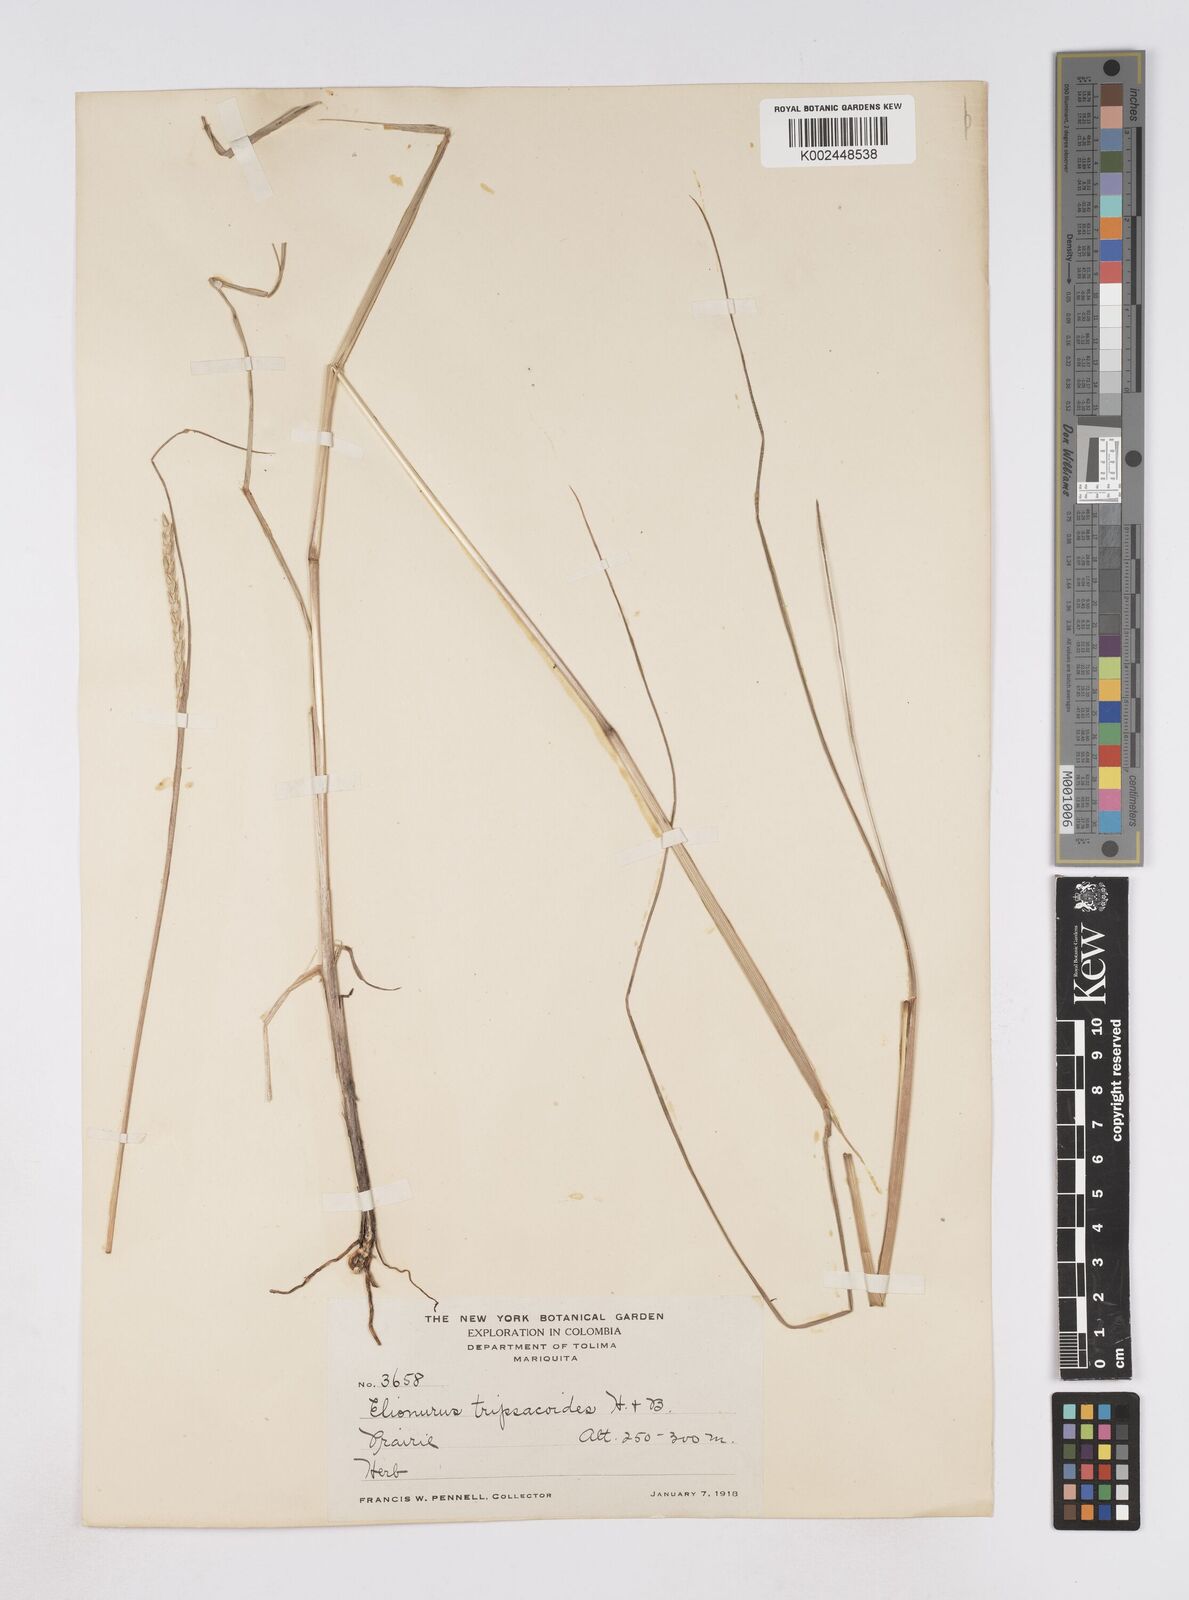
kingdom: Plantae
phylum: Tracheophyta
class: Liliopsida
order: Poales
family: Poaceae
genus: Elionurus
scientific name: Elionurus muticus
